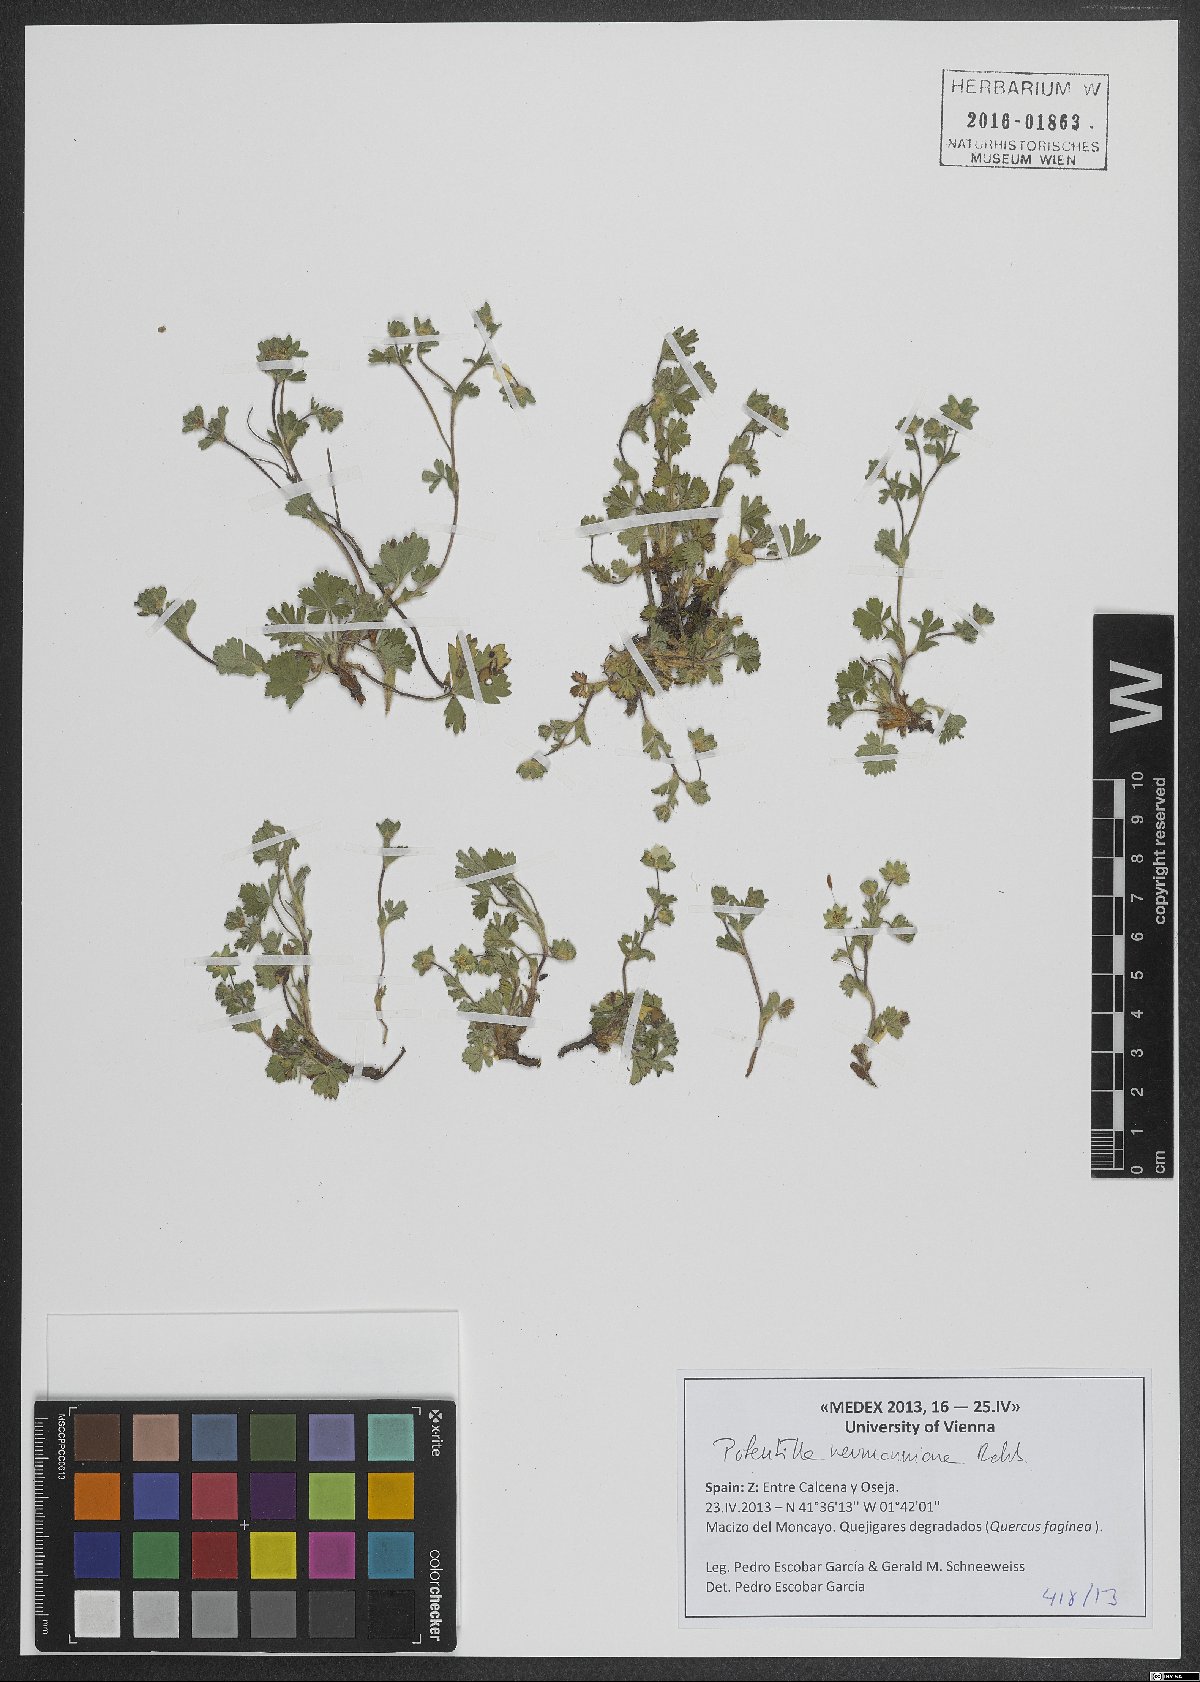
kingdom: Plantae
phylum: Tracheophyta
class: Magnoliopsida
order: Rosales
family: Rosaceae
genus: Potentilla
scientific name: Potentilla verna
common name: Spring cinquefoil
